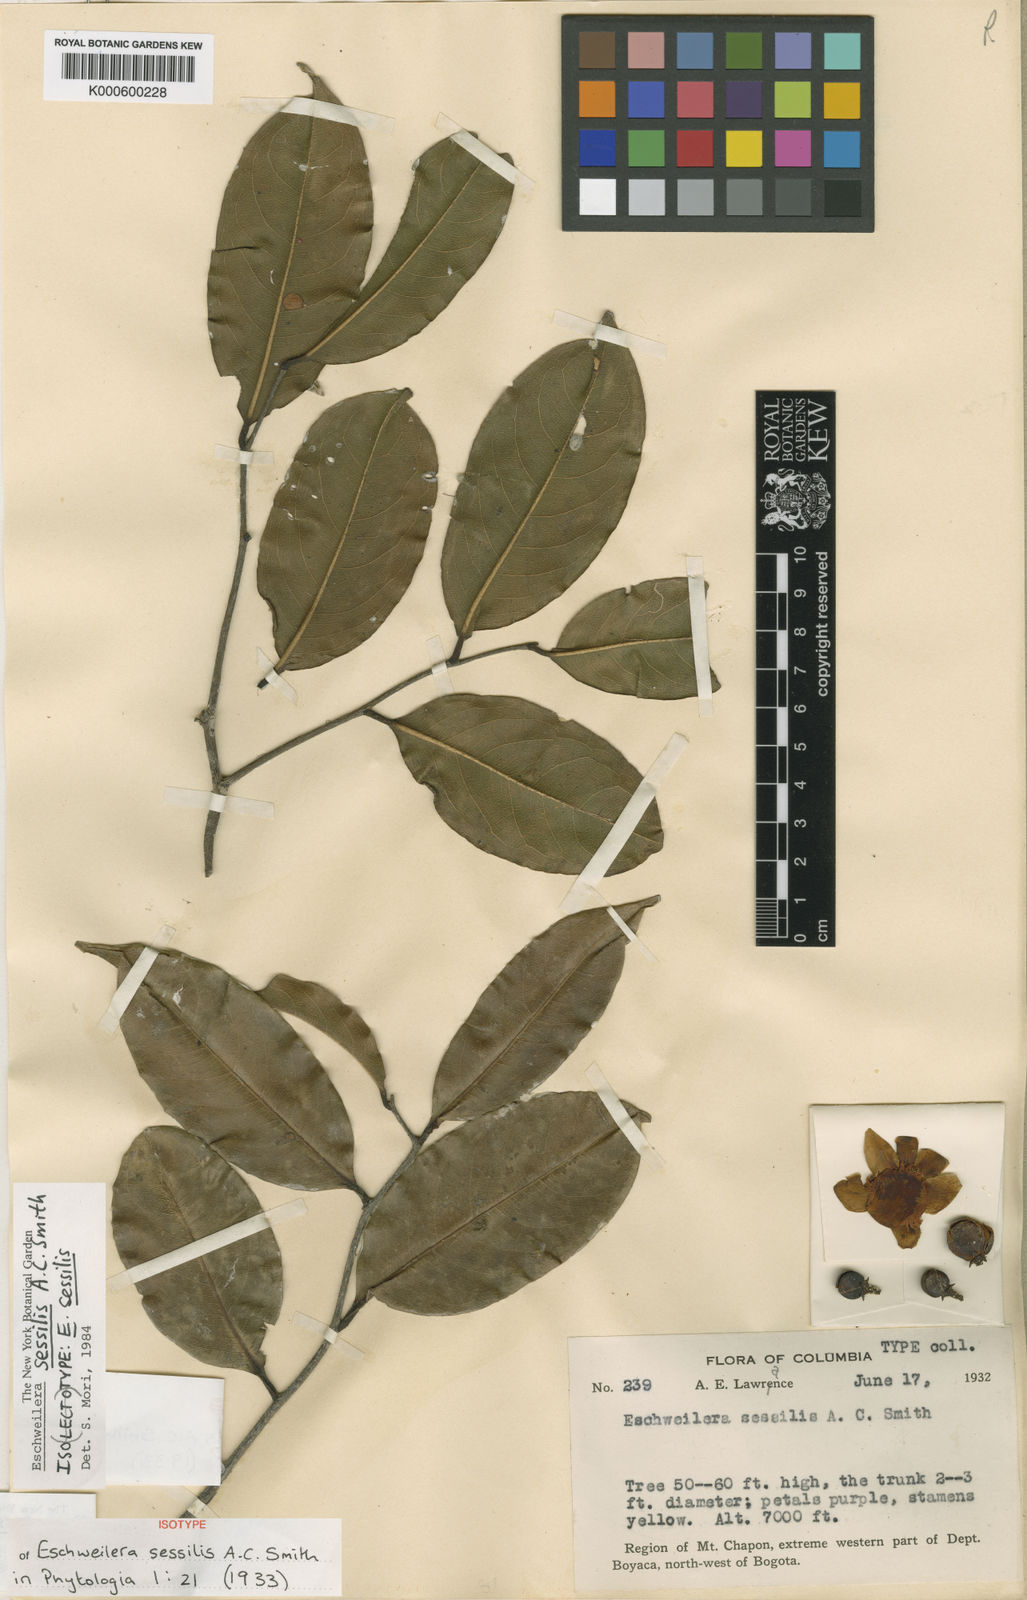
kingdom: Plantae
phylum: Tracheophyta
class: Magnoliopsida
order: Ericales
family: Lecythidaceae
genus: Eschweilera
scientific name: Eschweilera sessilis
